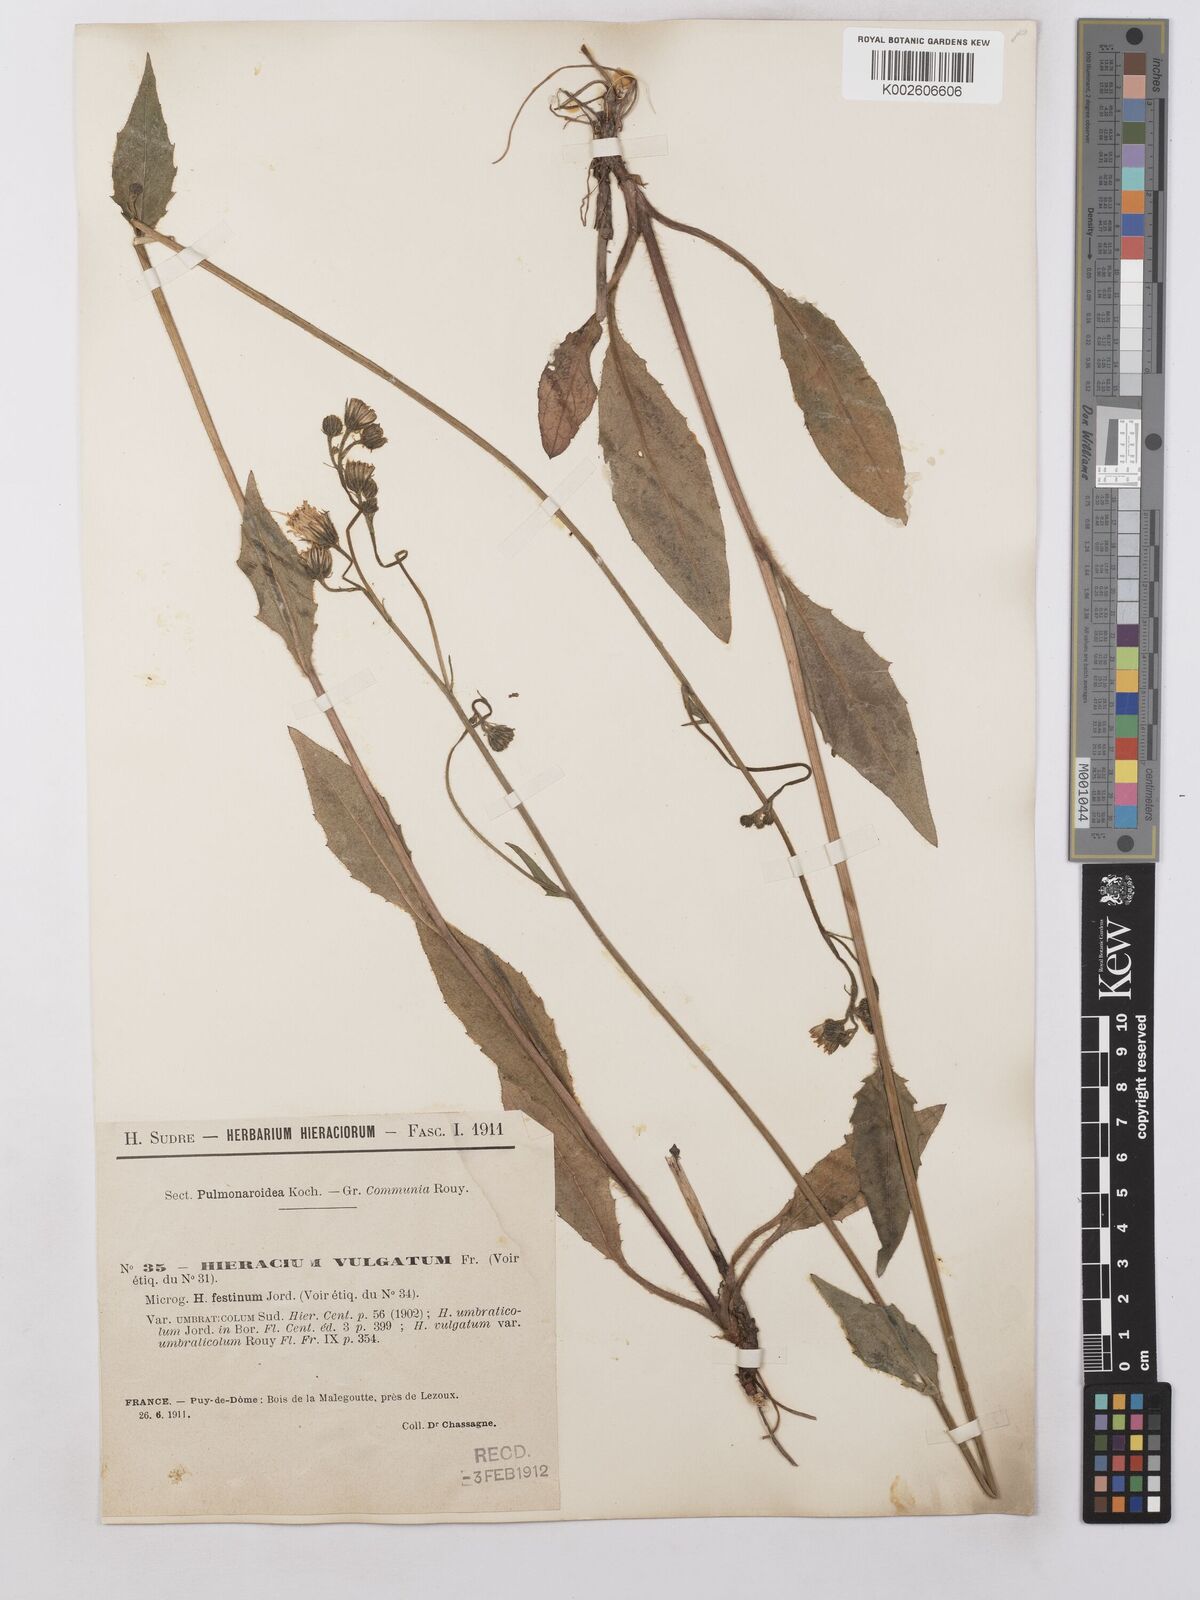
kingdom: Plantae
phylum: Tracheophyta
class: Magnoliopsida
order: Asterales
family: Asteraceae
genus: Hieracium
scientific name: Hieracium lachenalii
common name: Common hawkweed
